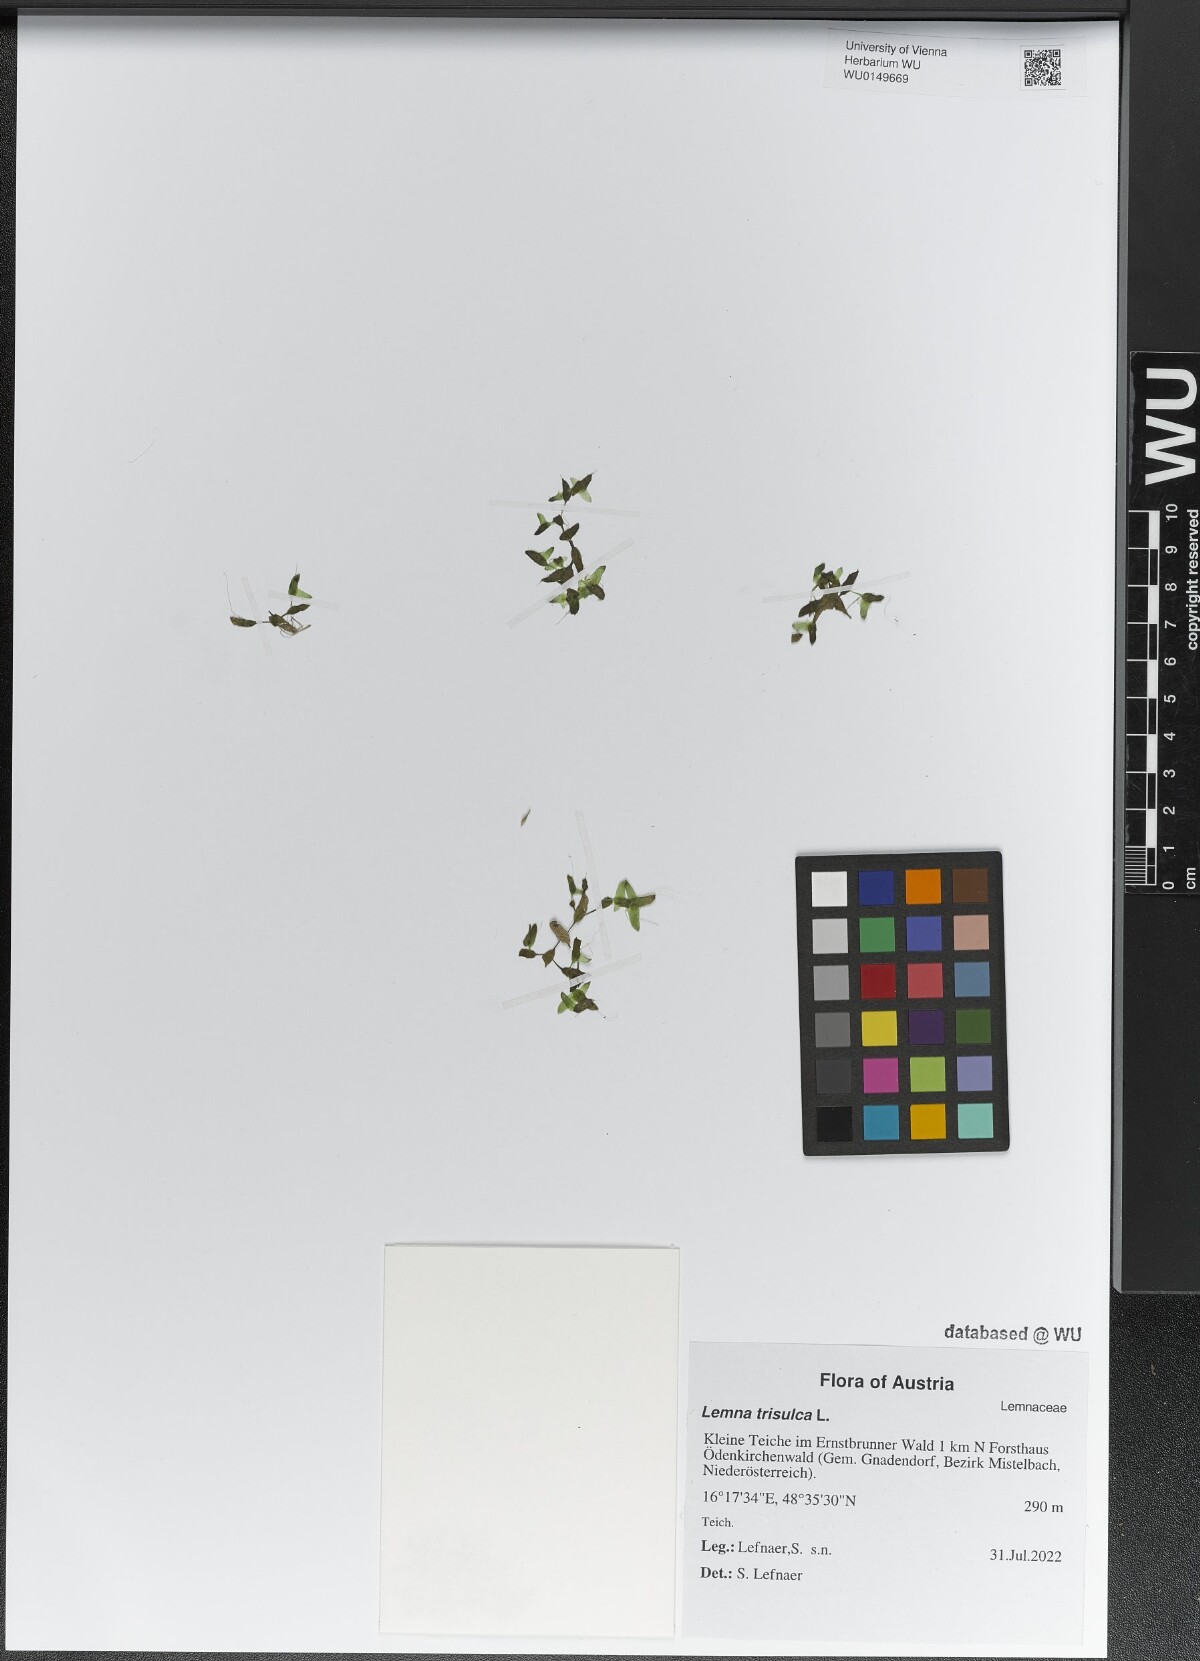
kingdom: Plantae
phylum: Tracheophyta
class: Liliopsida
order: Alismatales
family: Araceae
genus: Lemna
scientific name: Lemna trisulca
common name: Ivy-leaved duckweed
